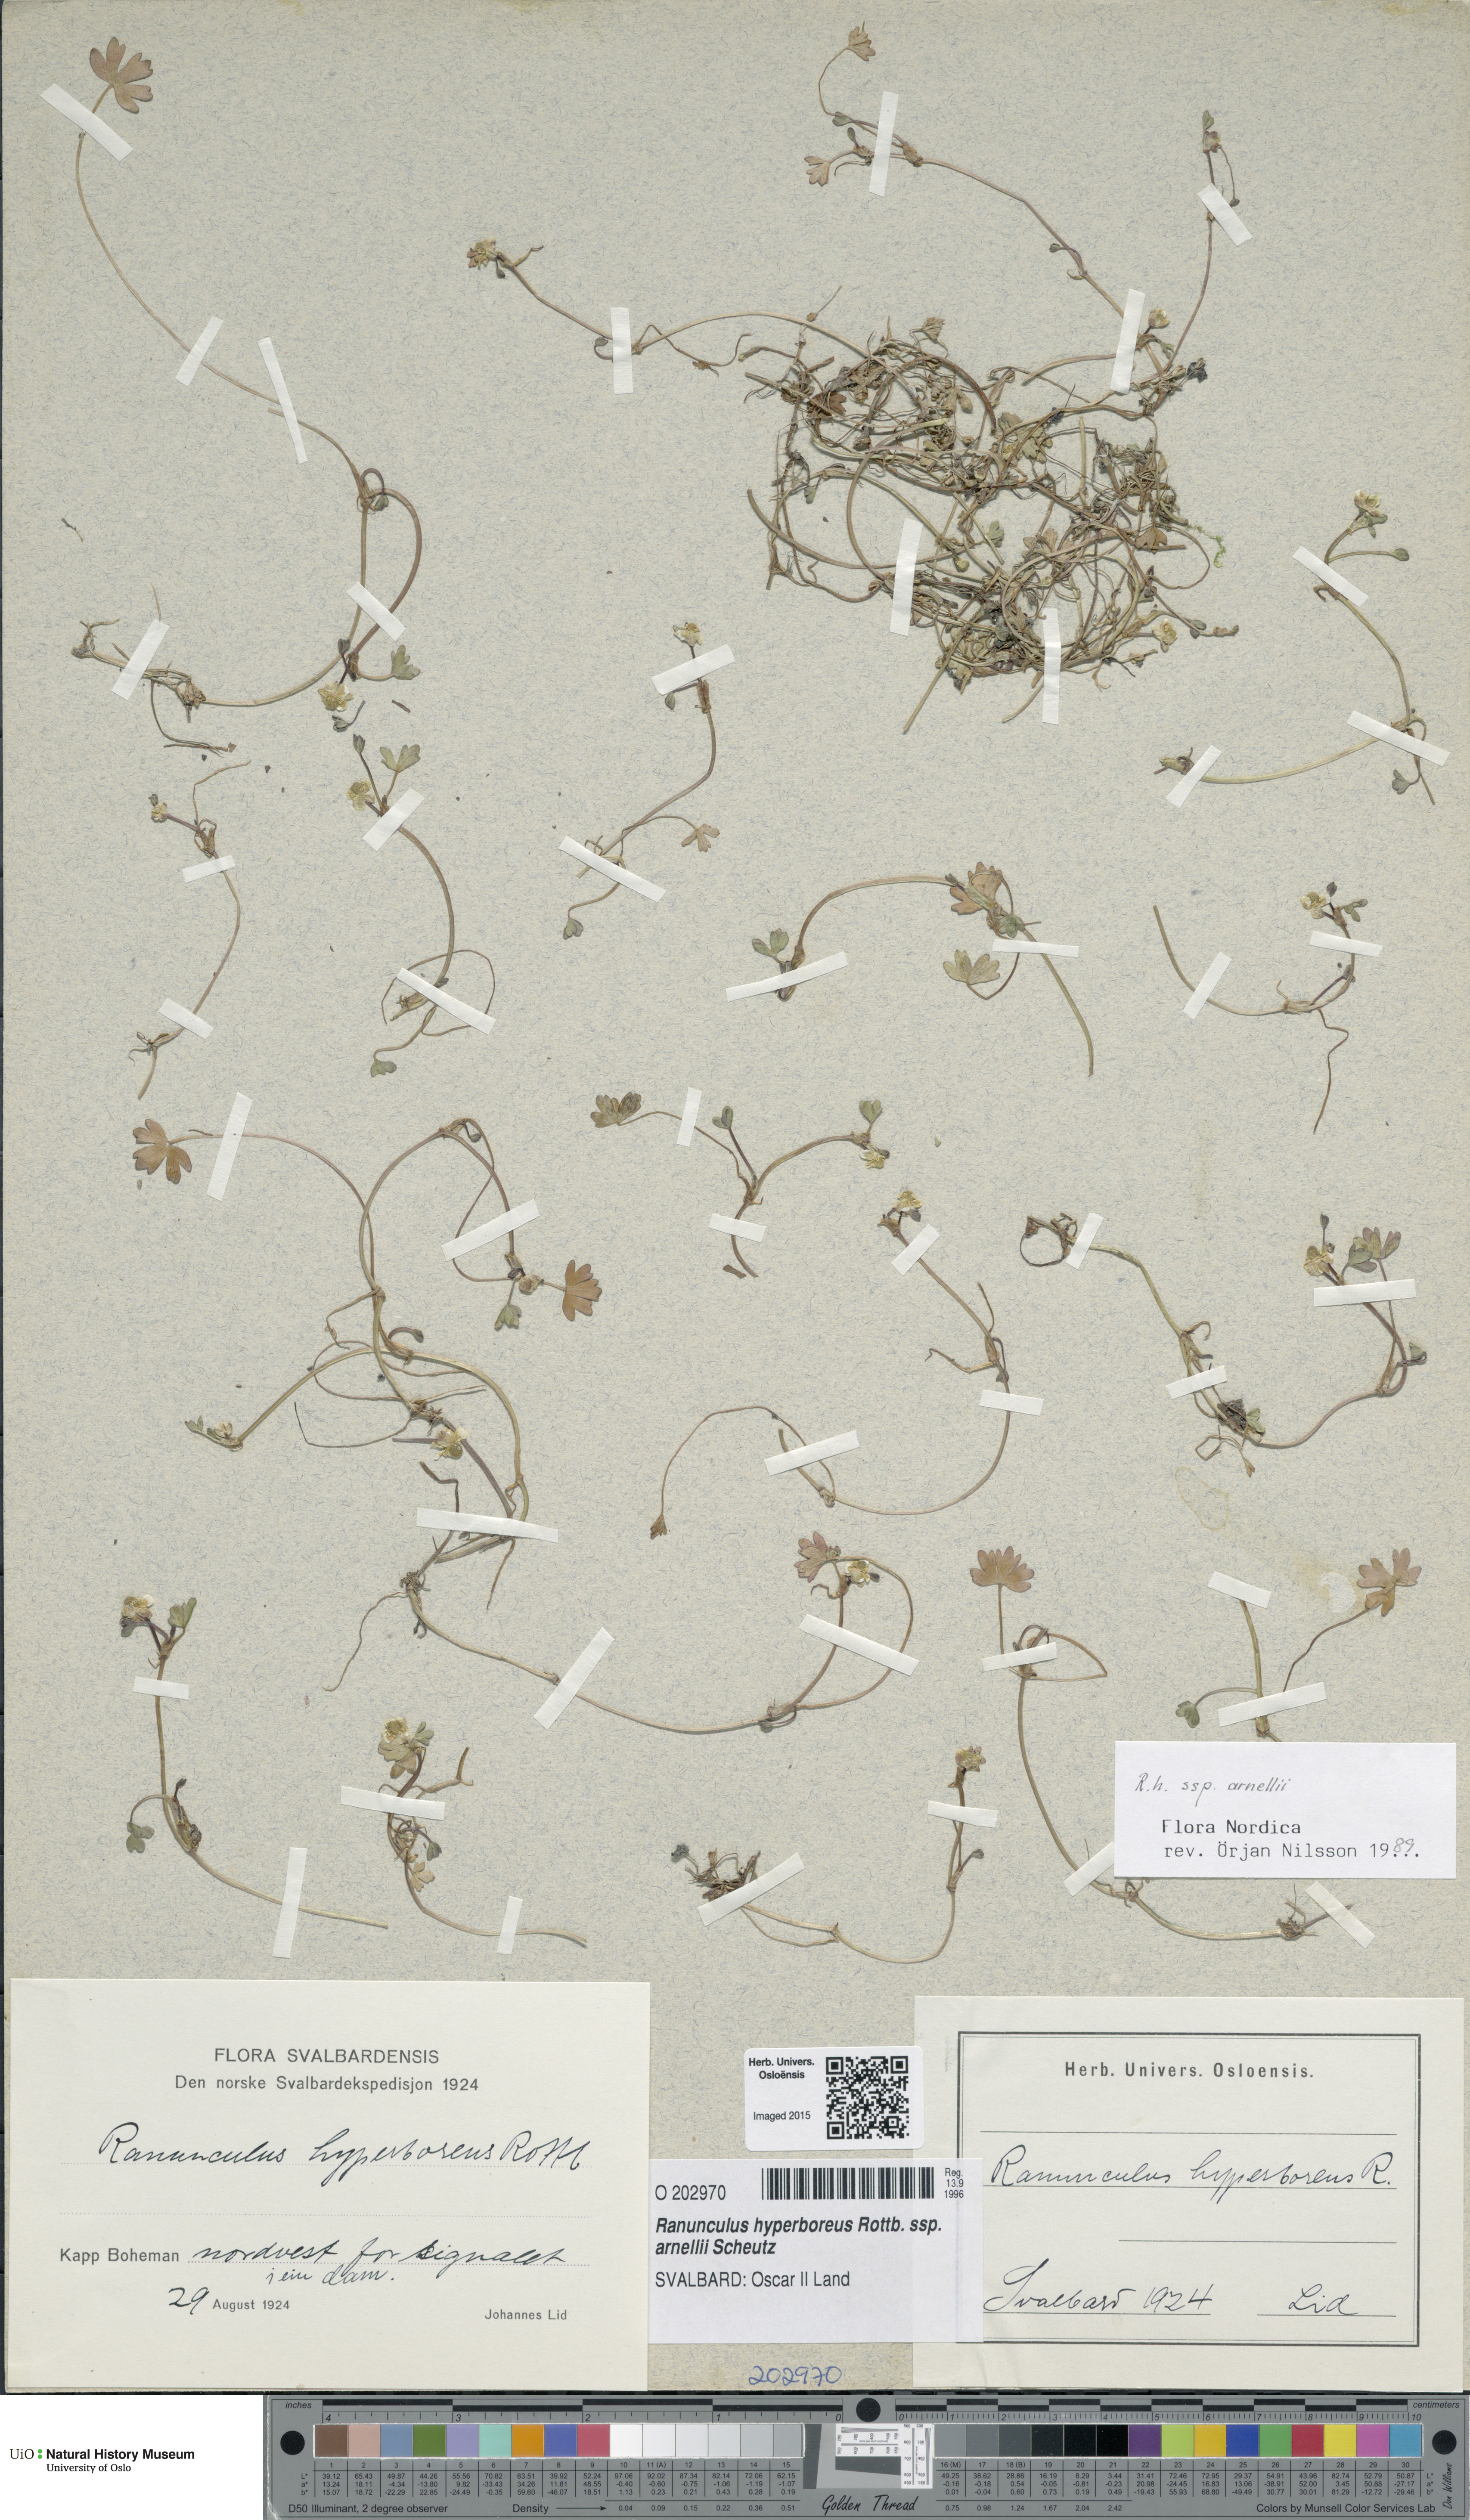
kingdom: Plantae
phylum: Tracheophyta
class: Magnoliopsida
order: Ranunculales
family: Ranunculaceae
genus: Ranunculus
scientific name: Ranunculus hyperboreus
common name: Arctic buttercup
